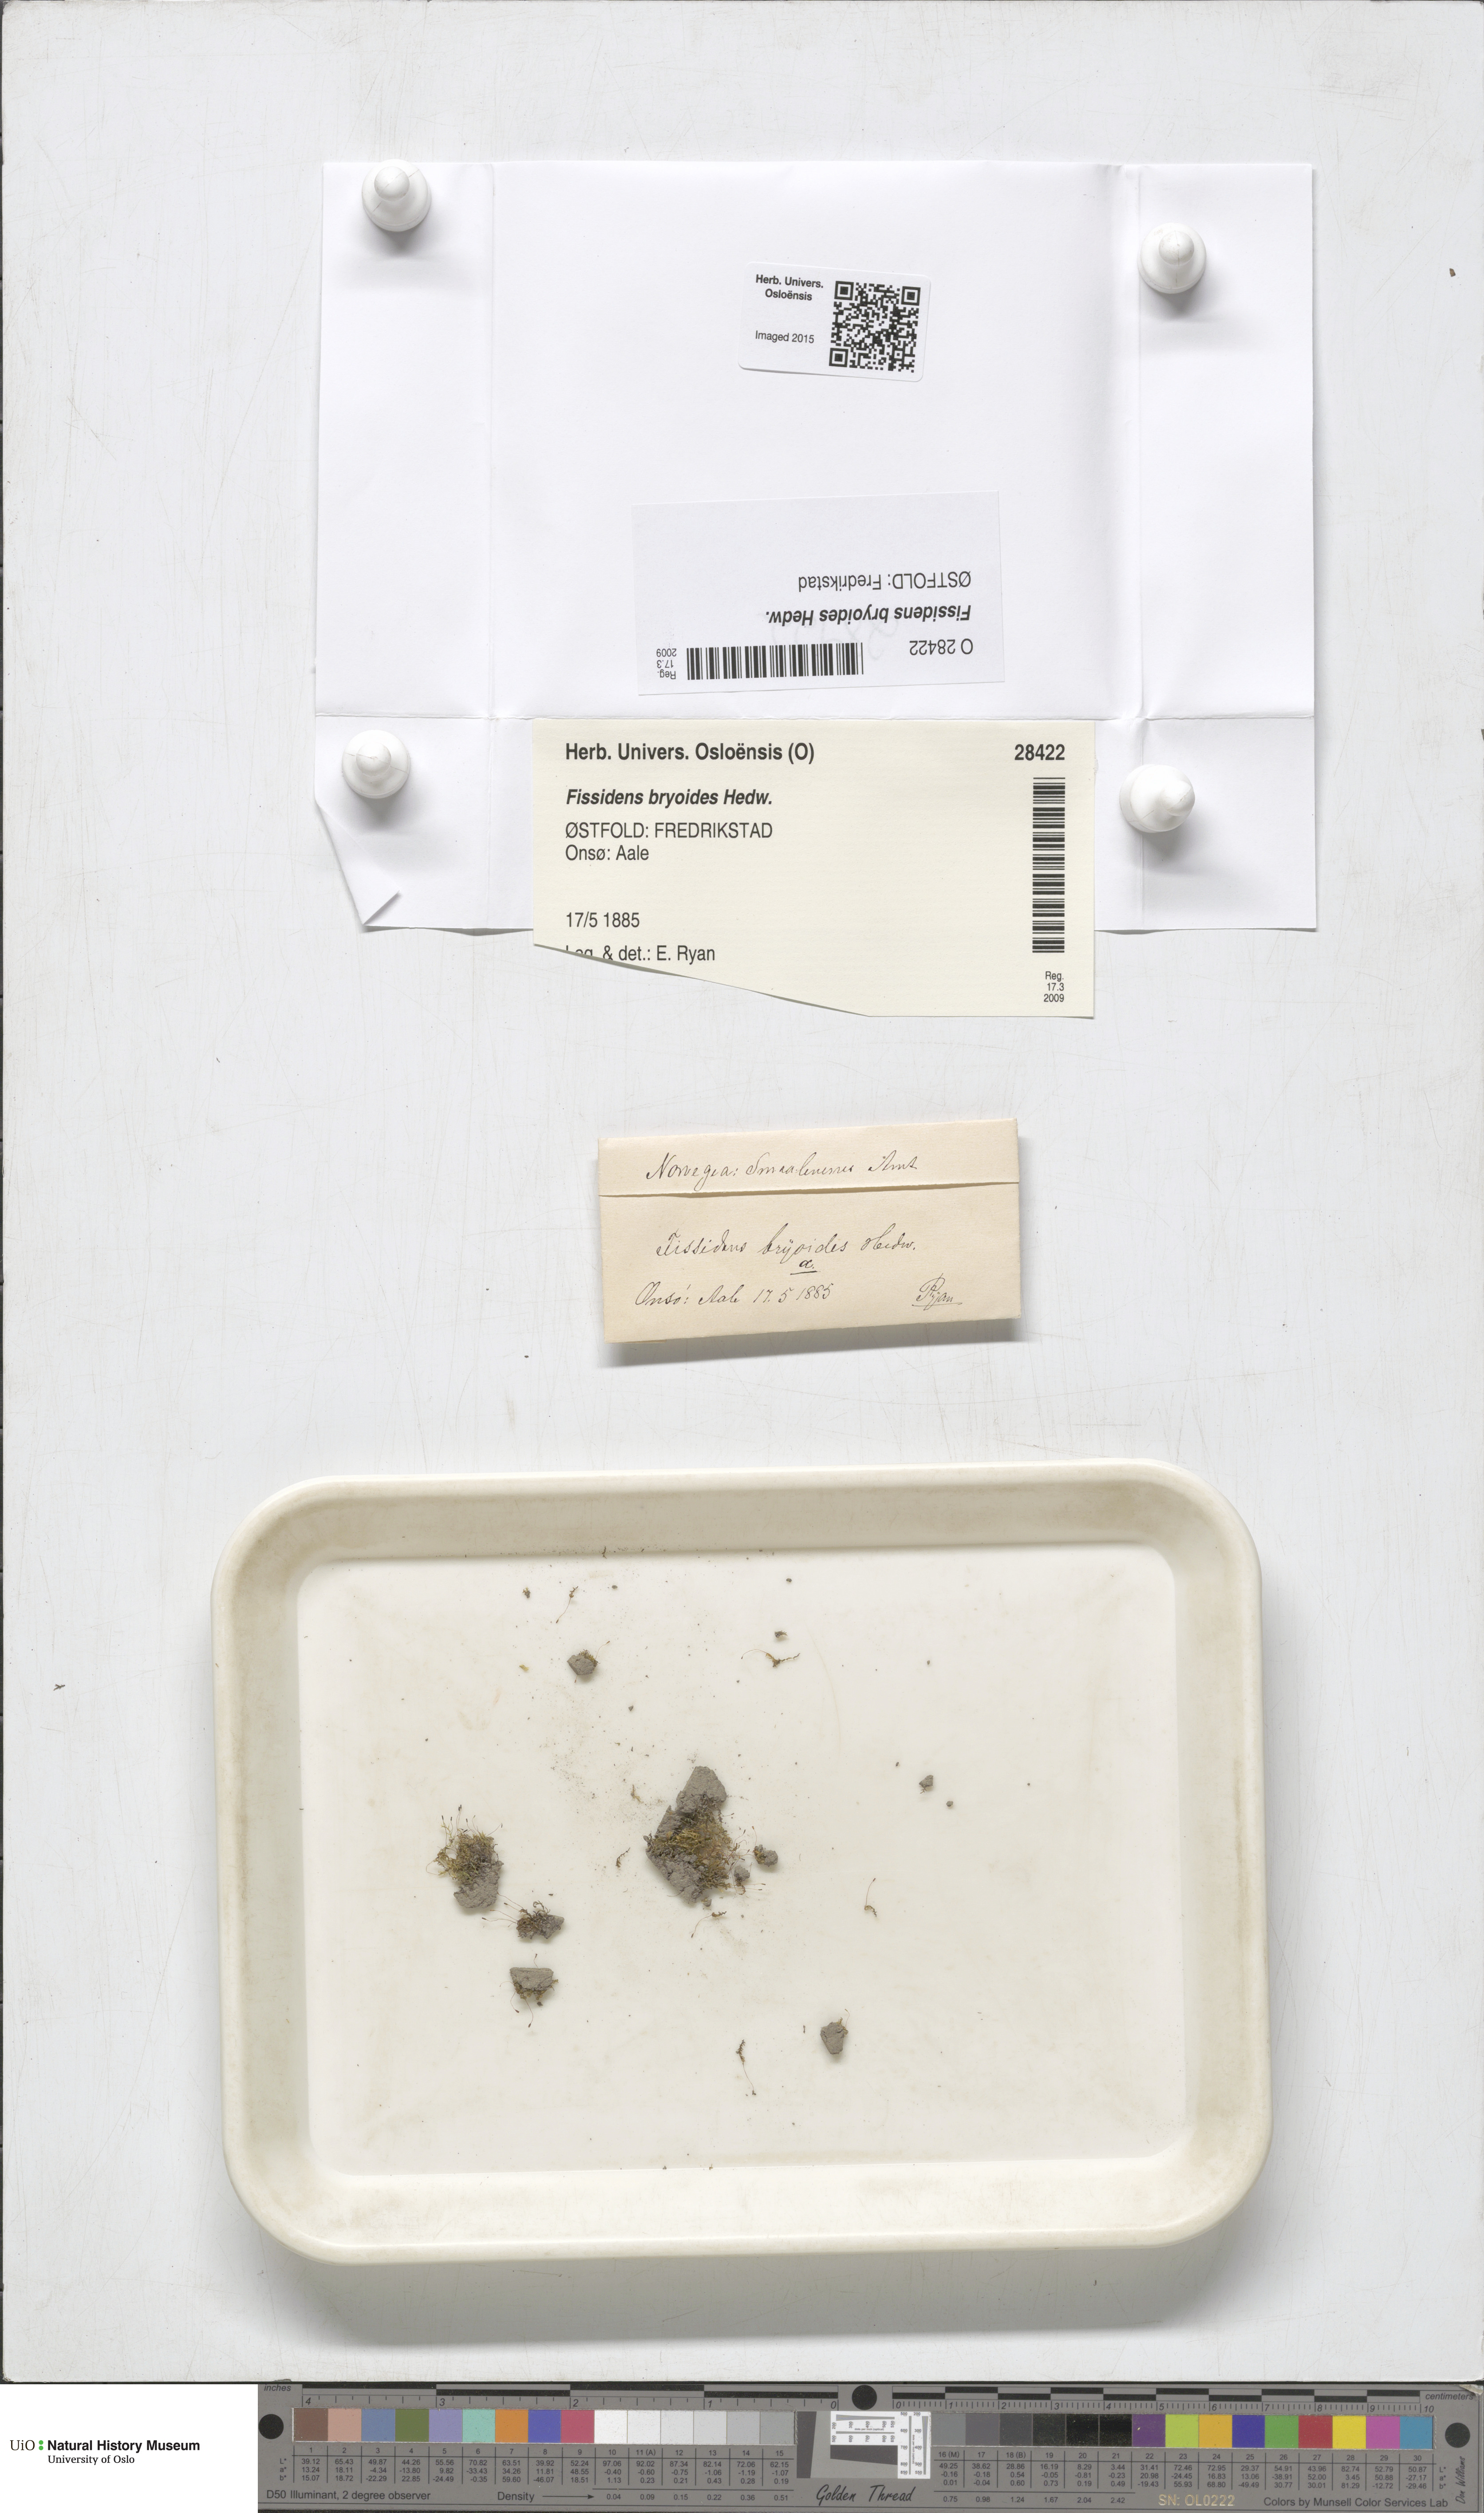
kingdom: Plantae
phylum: Bryophyta
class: Bryopsida
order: Dicranales
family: Fissidentaceae
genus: Fissidens
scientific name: Fissidens bryoides
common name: Lesser pocket moss
